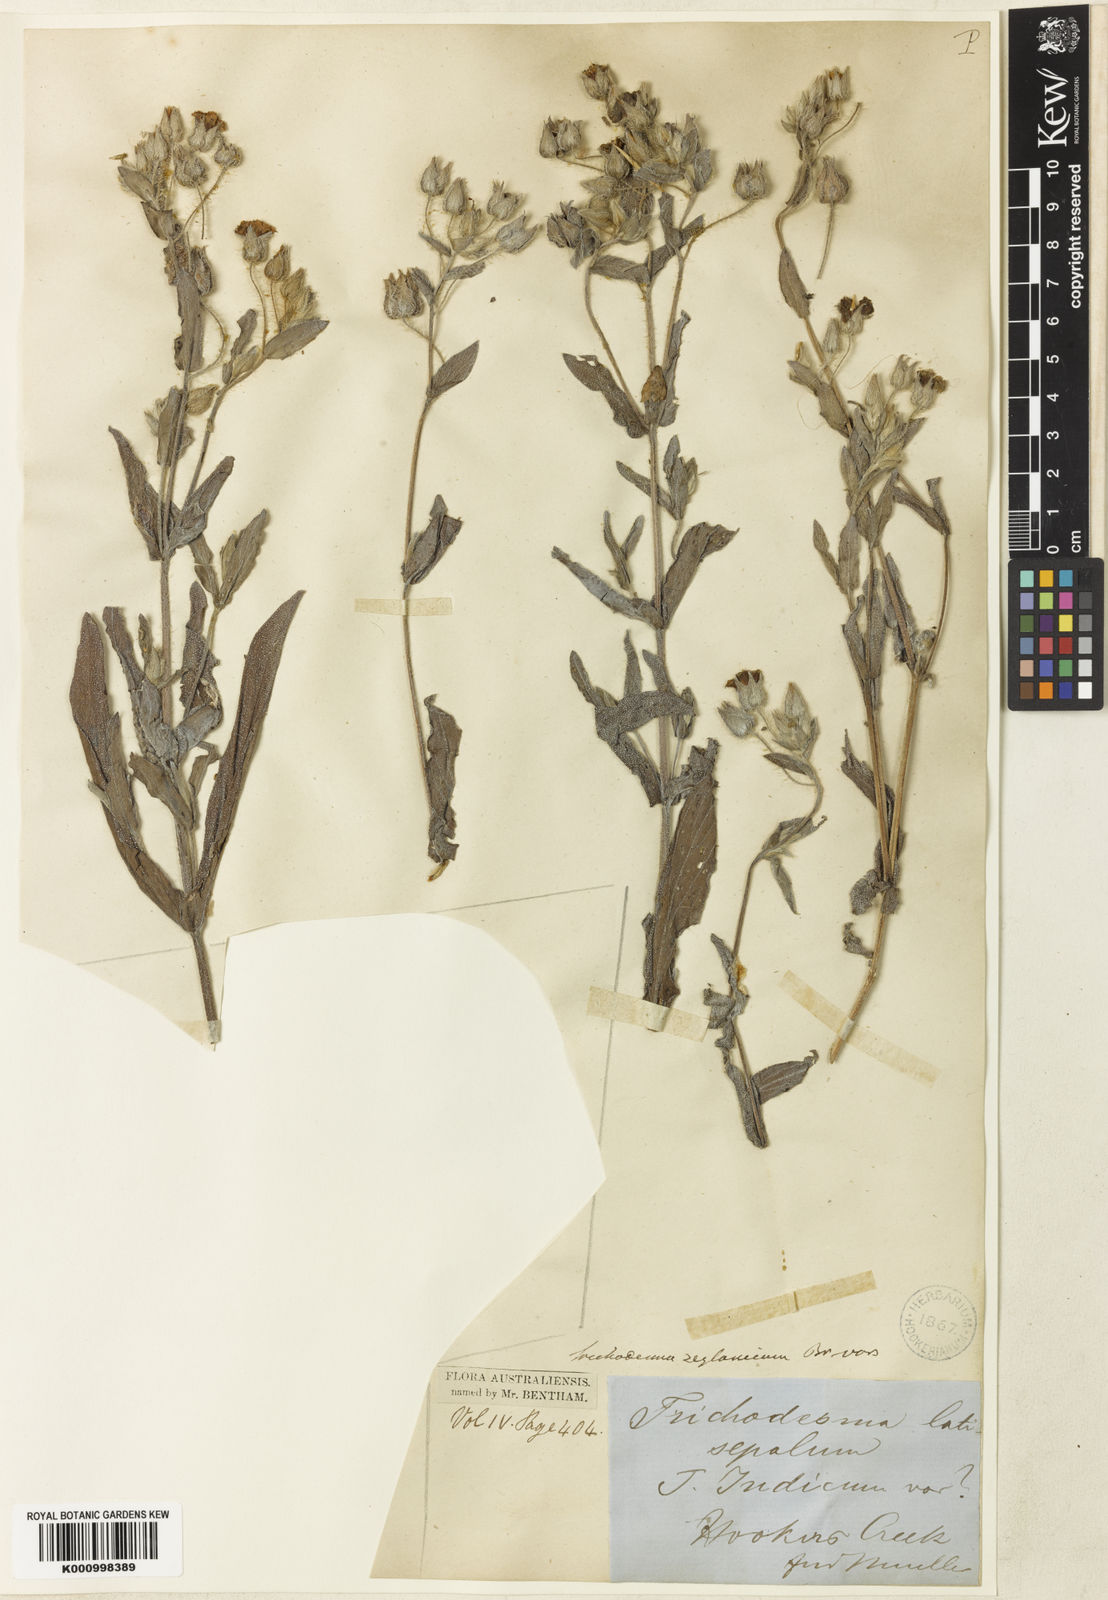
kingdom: Plantae
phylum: Tracheophyta
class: Magnoliopsida
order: Boraginales
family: Boraginaceae
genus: Trichodesma
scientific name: Trichodesma zeylanicum
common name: Camelbush
